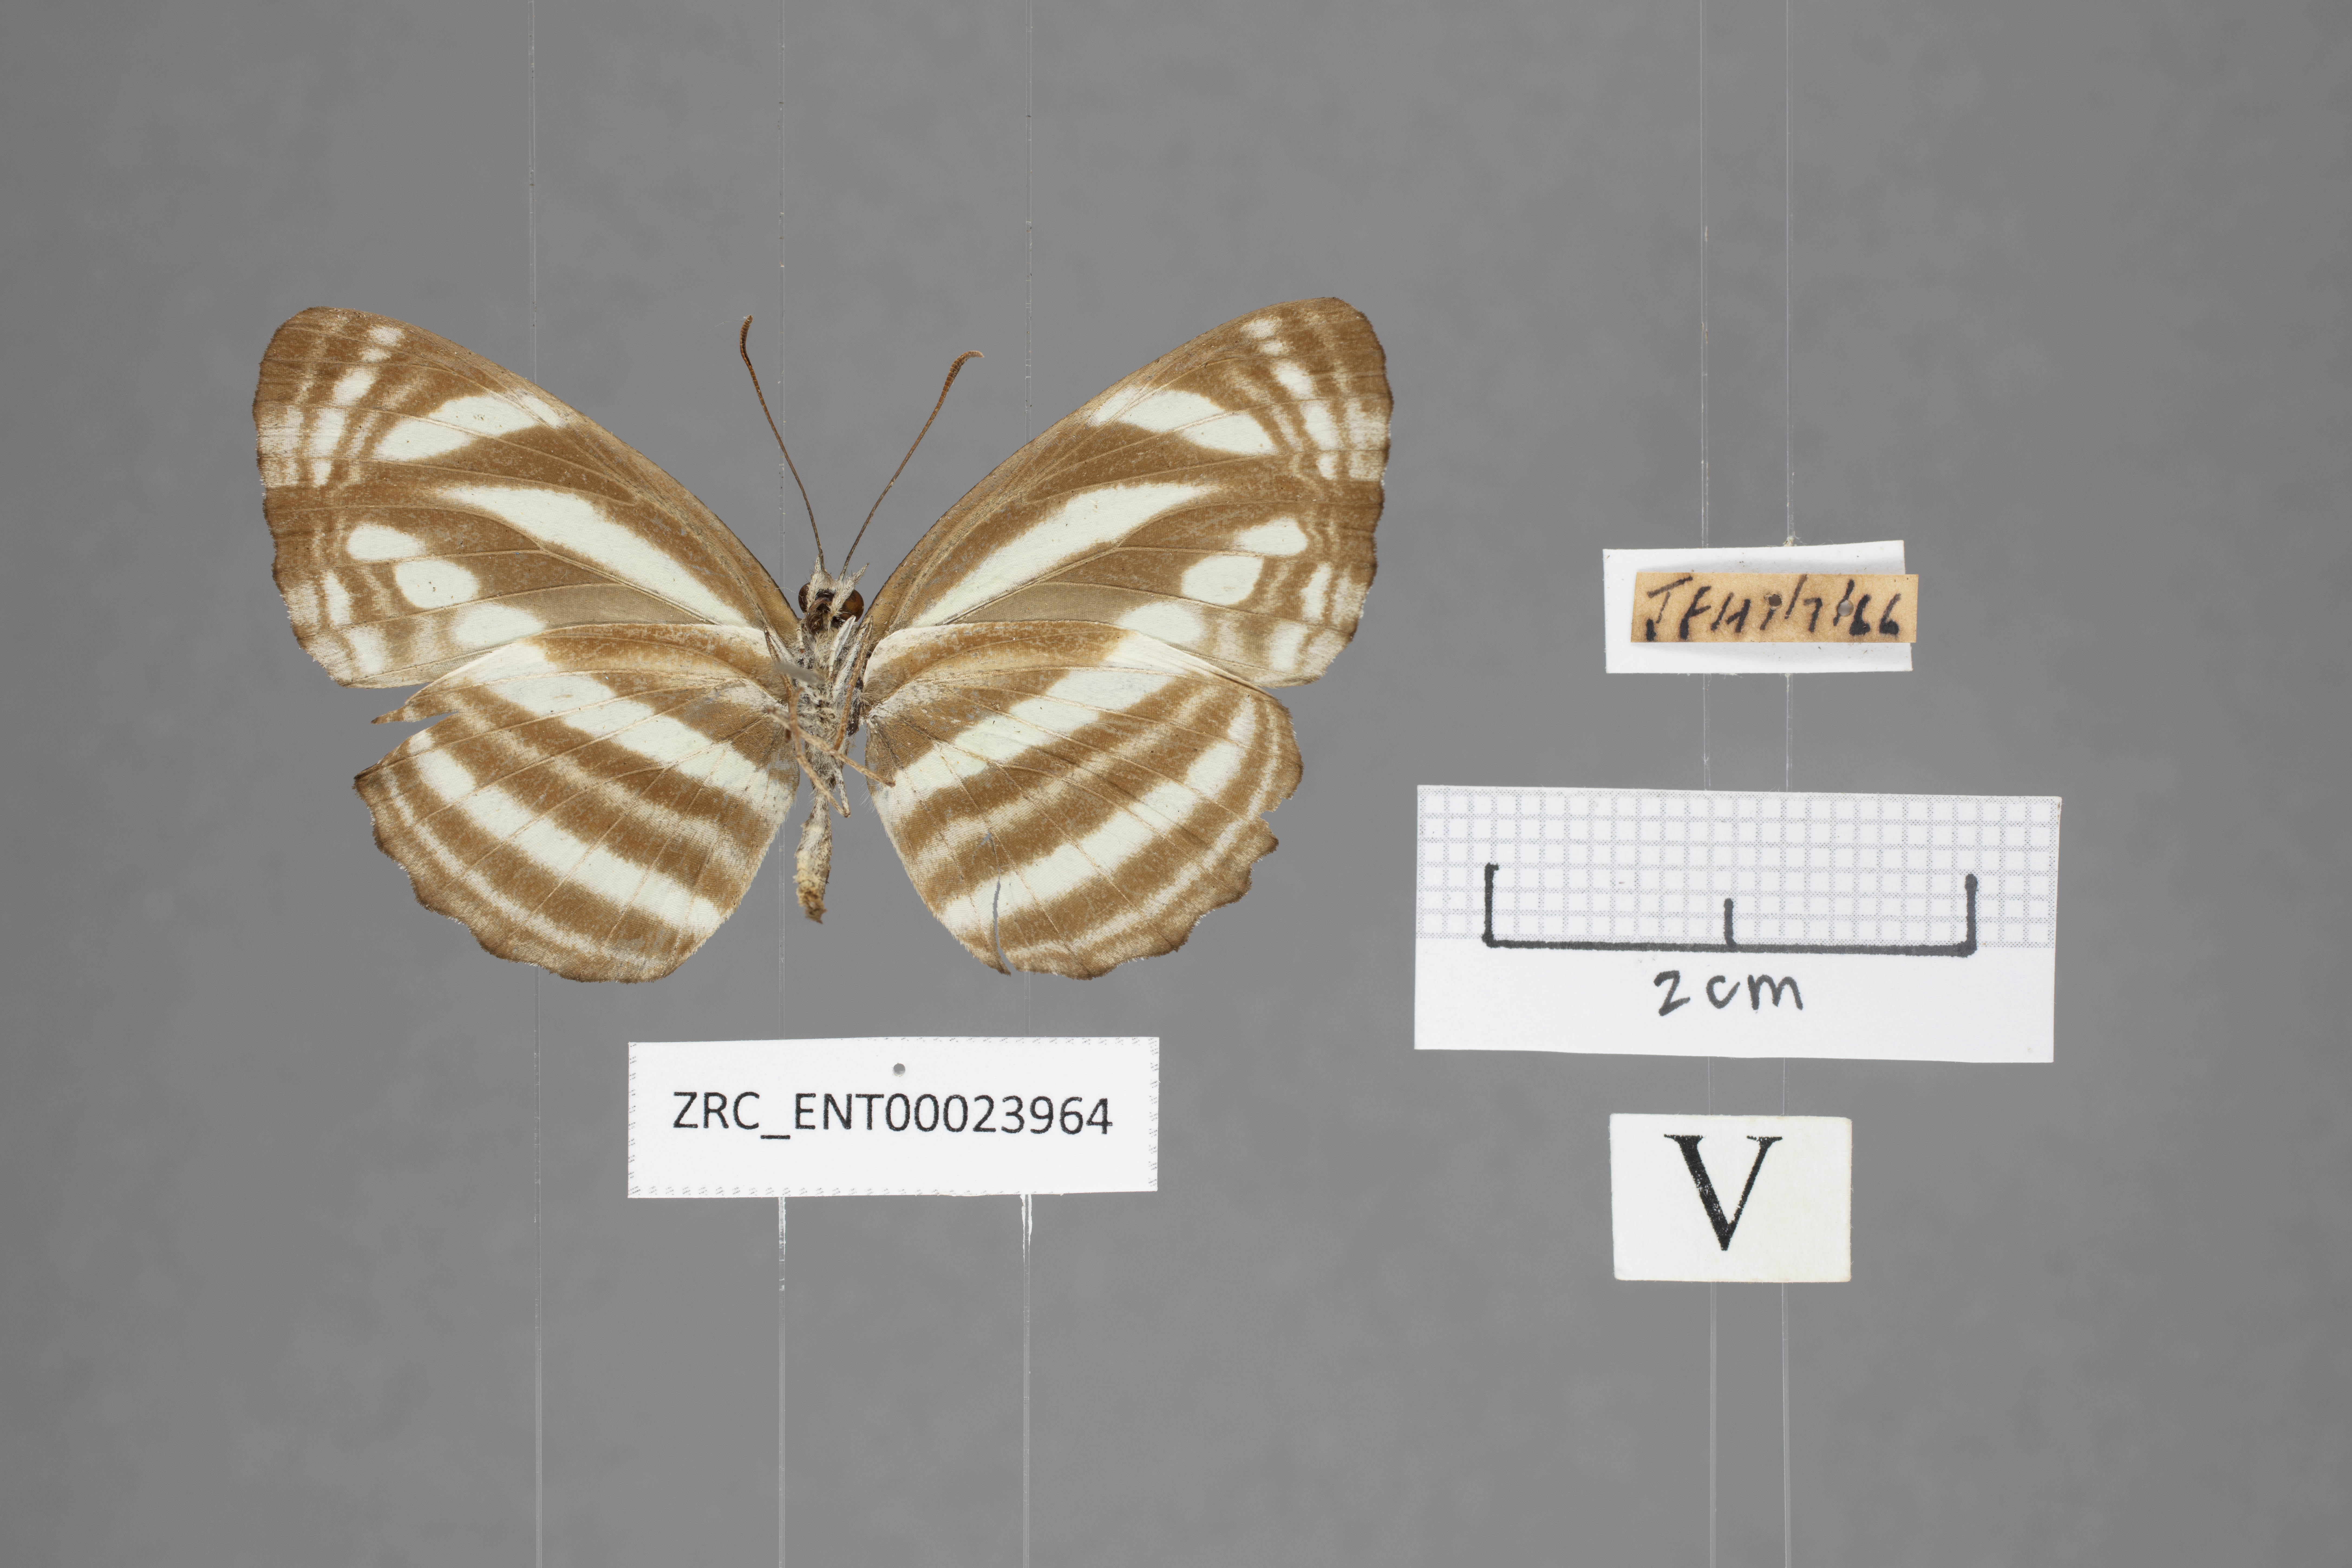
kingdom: Animalia
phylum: Arthropoda
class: Insecta
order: Lepidoptera
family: Nymphalidae
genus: Neptis
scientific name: Neptis clinioides
